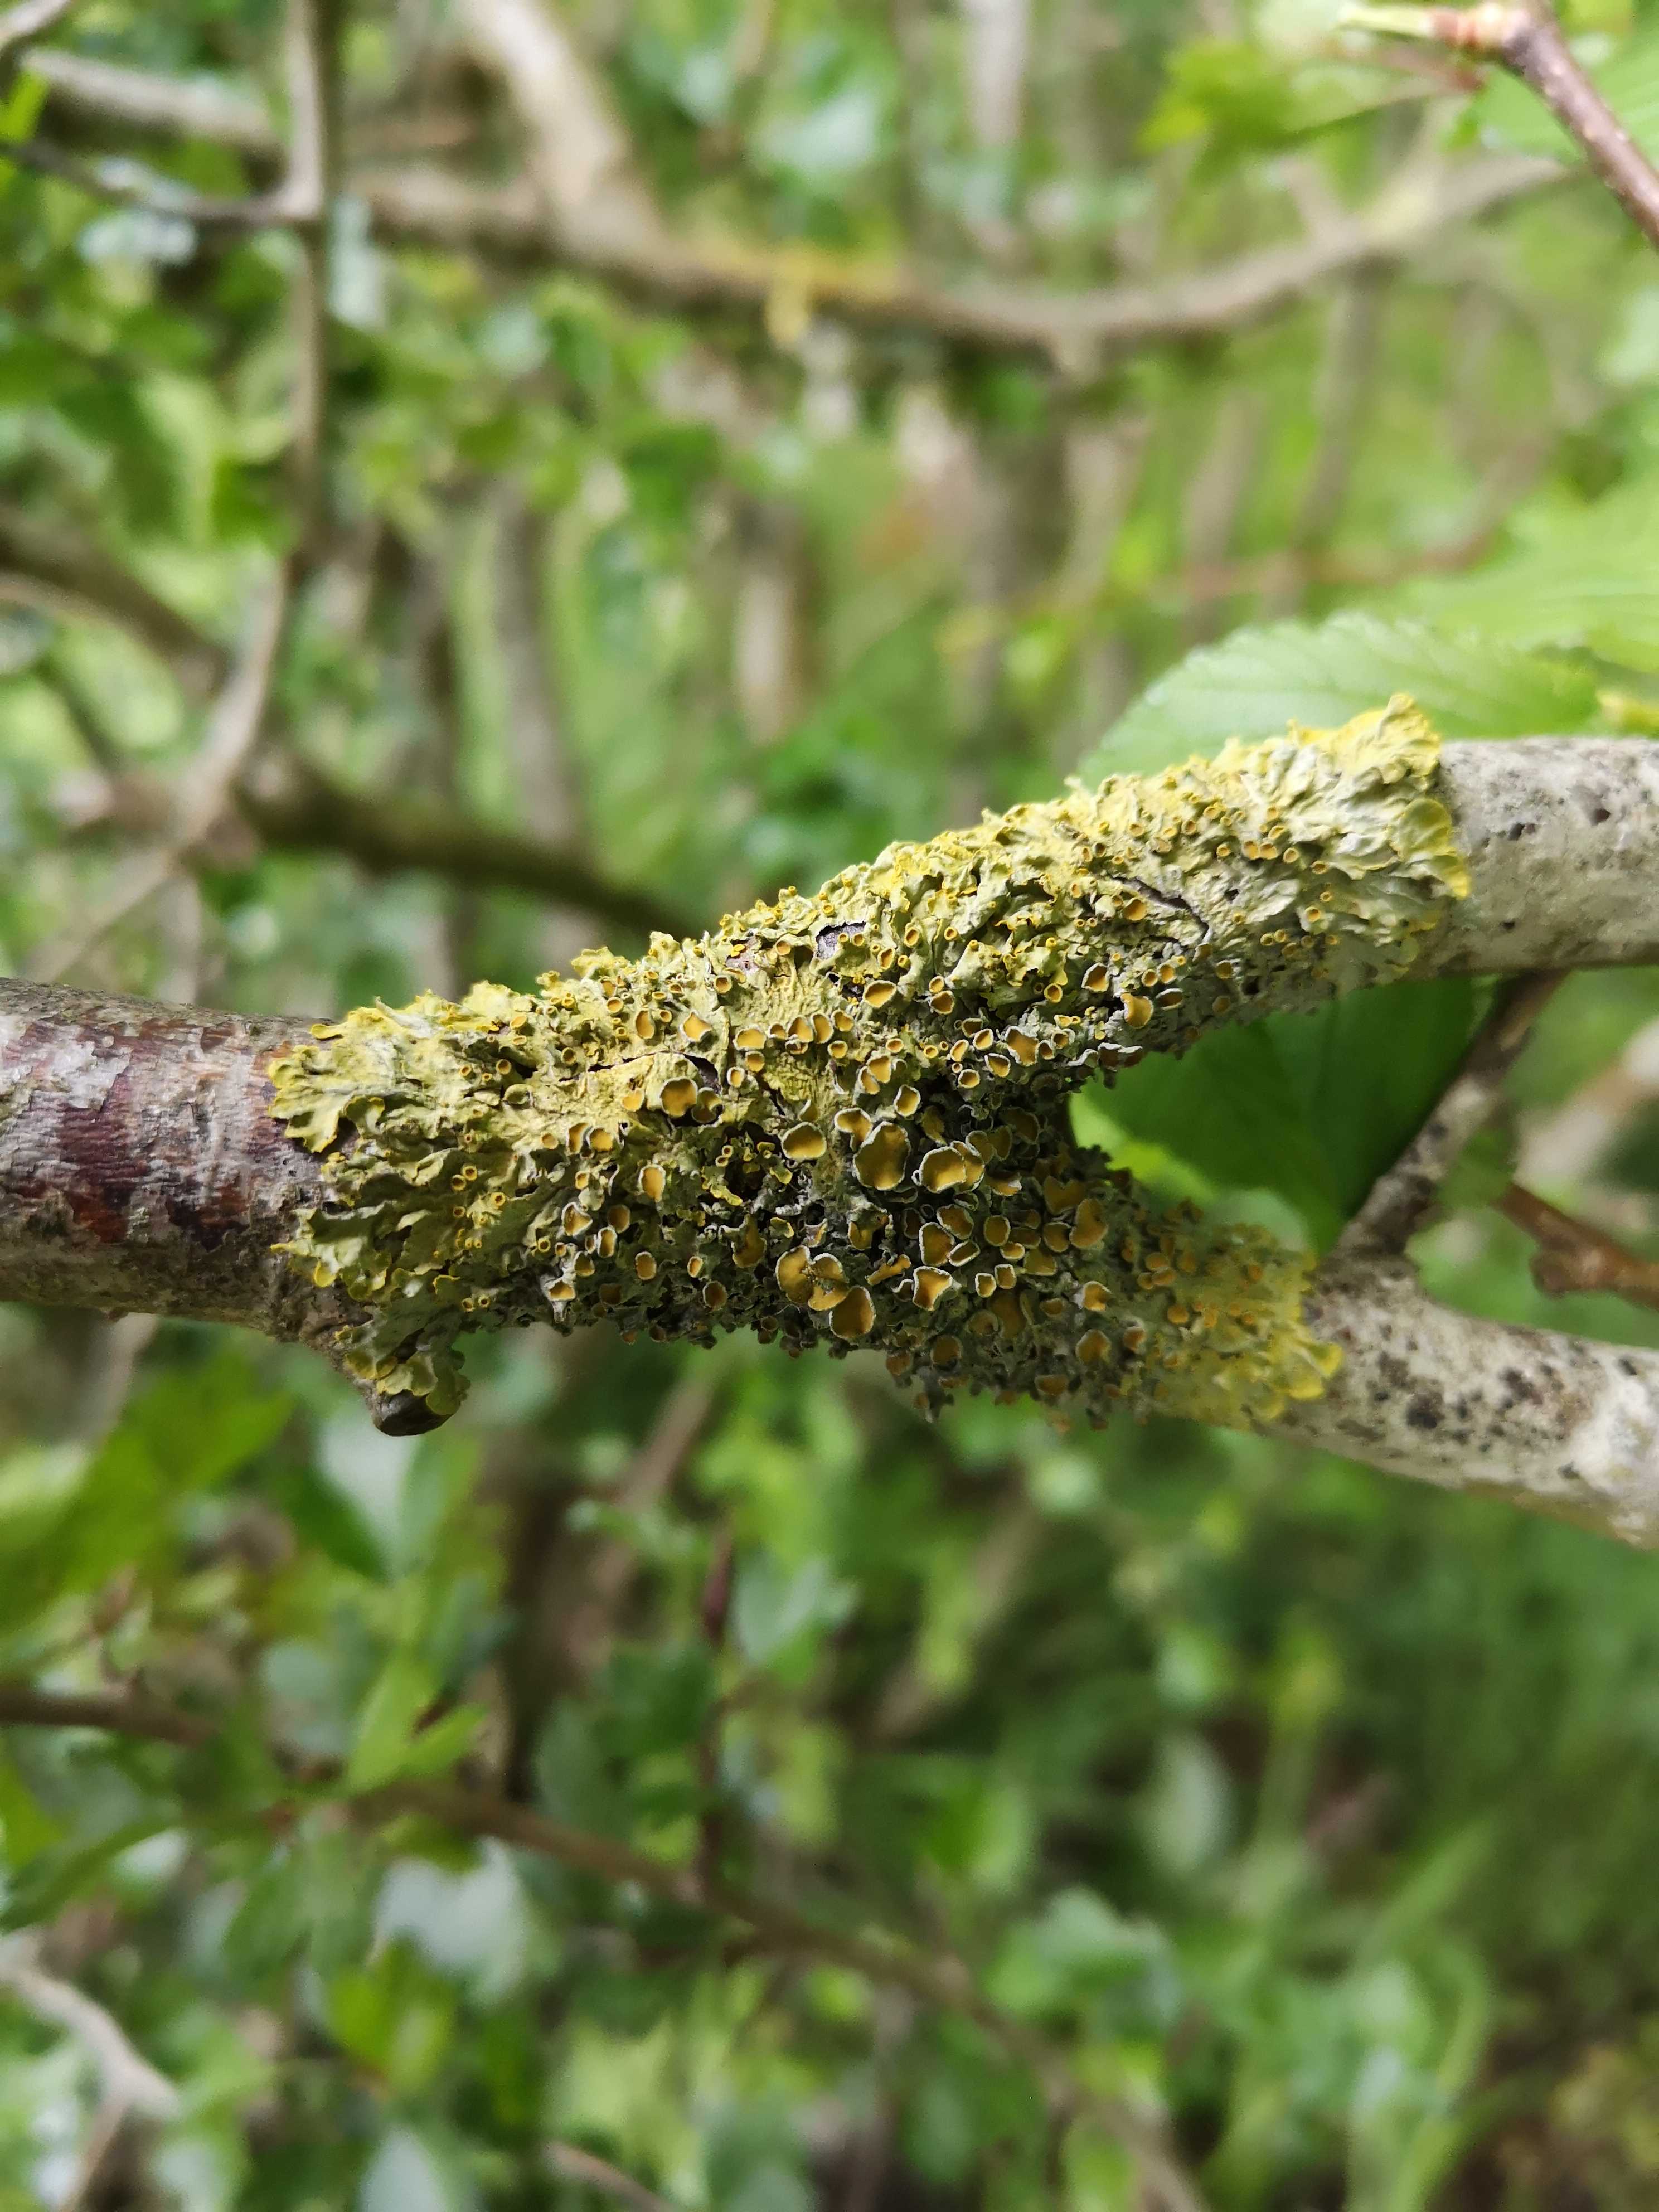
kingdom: Fungi
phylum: Ascomycota
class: Lecanoromycetes
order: Teloschistales
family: Teloschistaceae
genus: Xanthoria
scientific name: Xanthoria parietina
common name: almindelig væggelav
